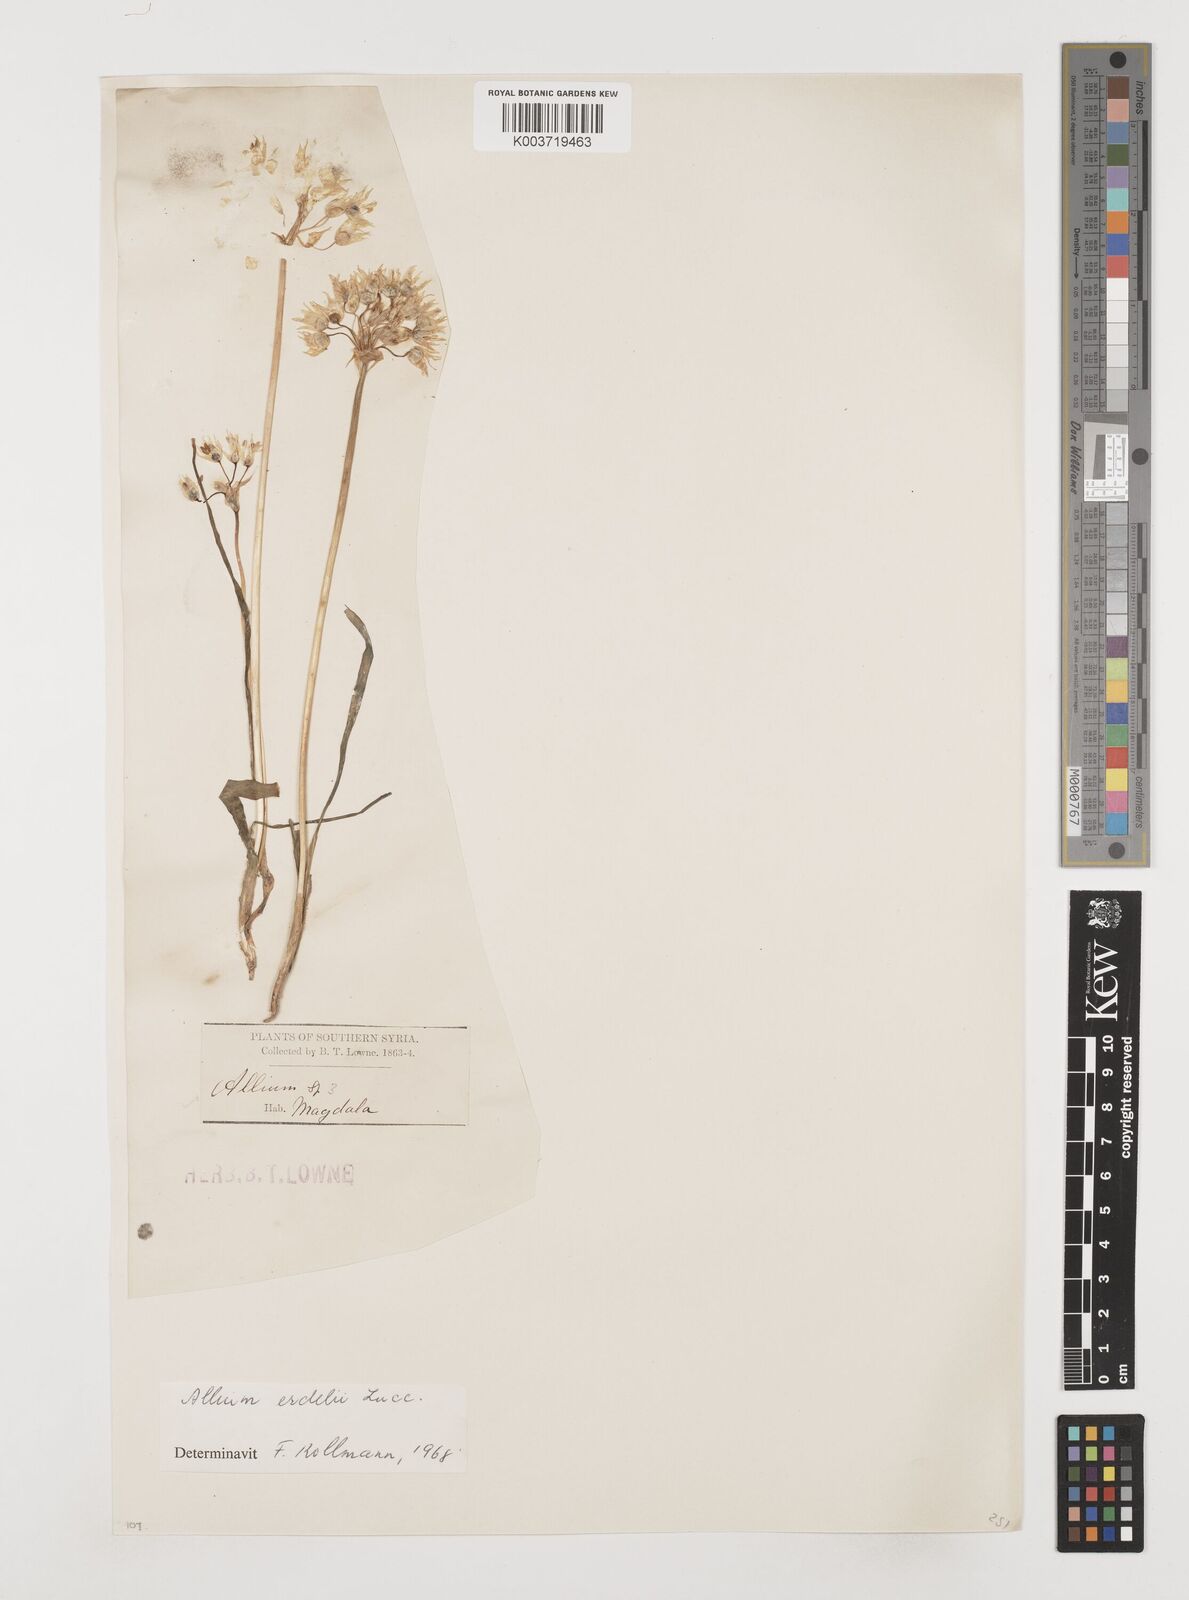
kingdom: Plantae
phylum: Tracheophyta
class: Liliopsida
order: Asparagales
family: Amaryllidaceae
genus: Allium
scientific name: Allium erdelii
